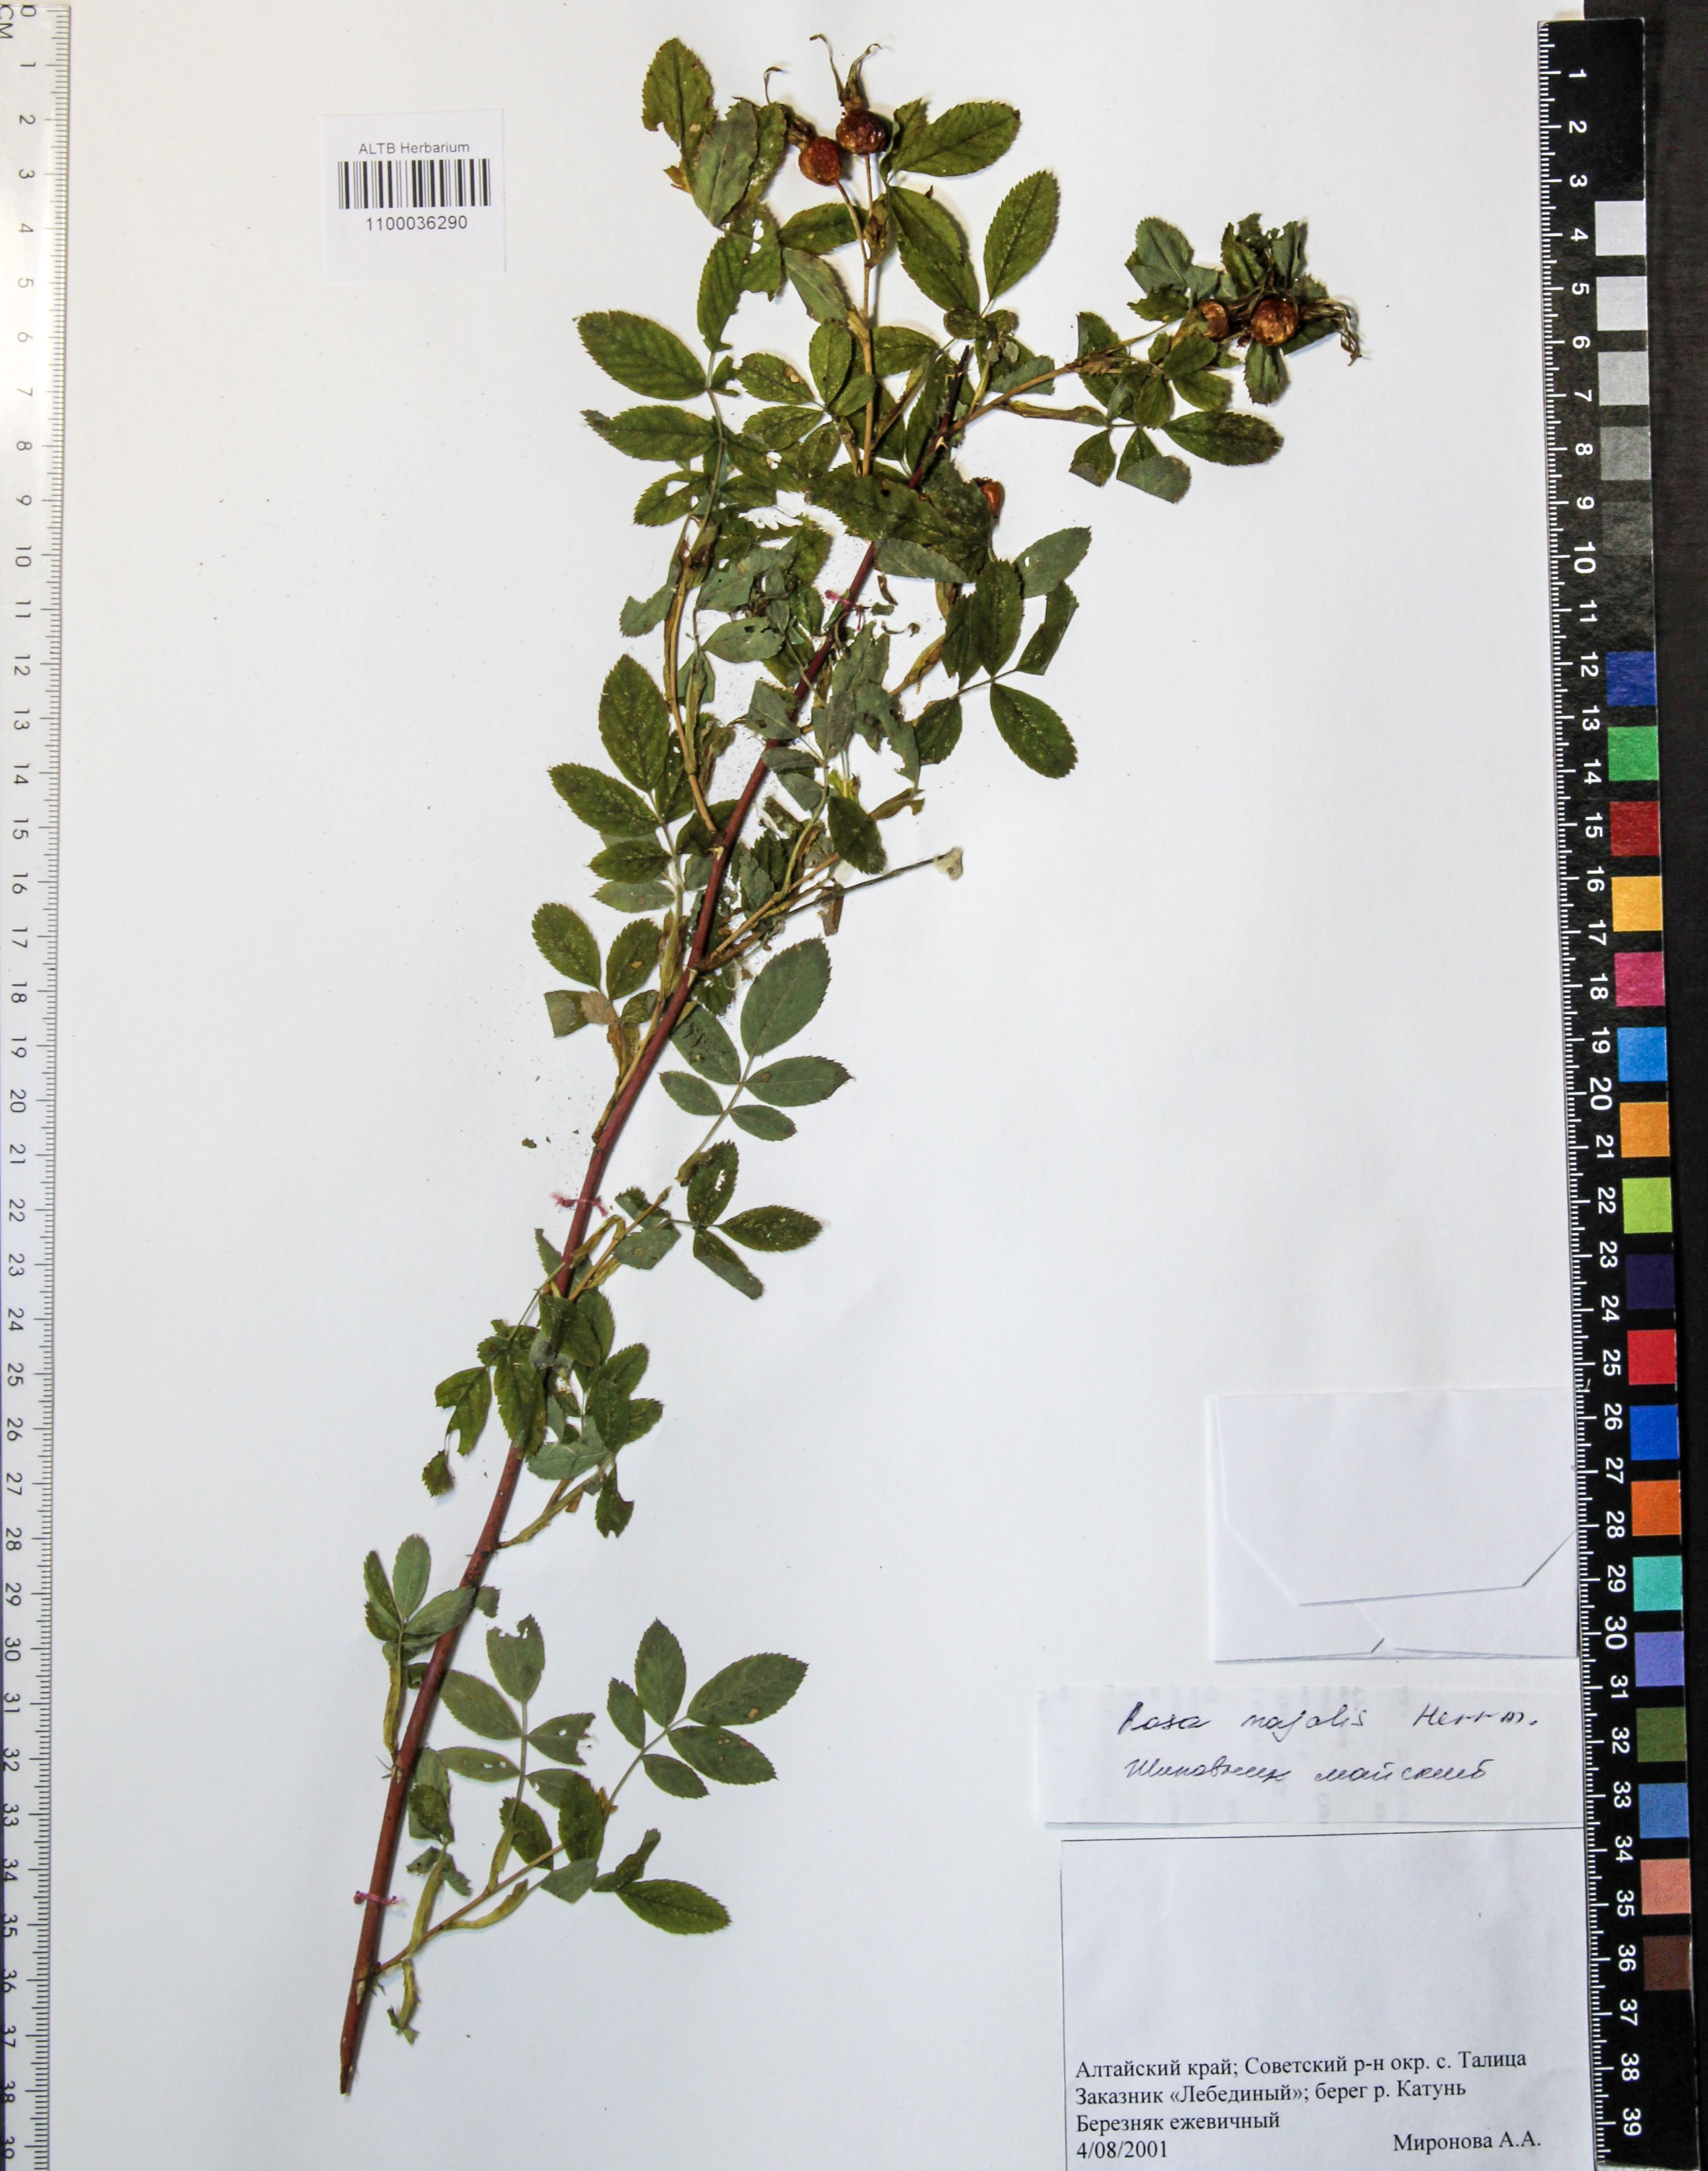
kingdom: Plantae
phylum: Tracheophyta
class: Magnoliopsida
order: Rosales
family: Rosaceae
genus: Rosa
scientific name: Rosa majalis
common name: Cinnamon rose
